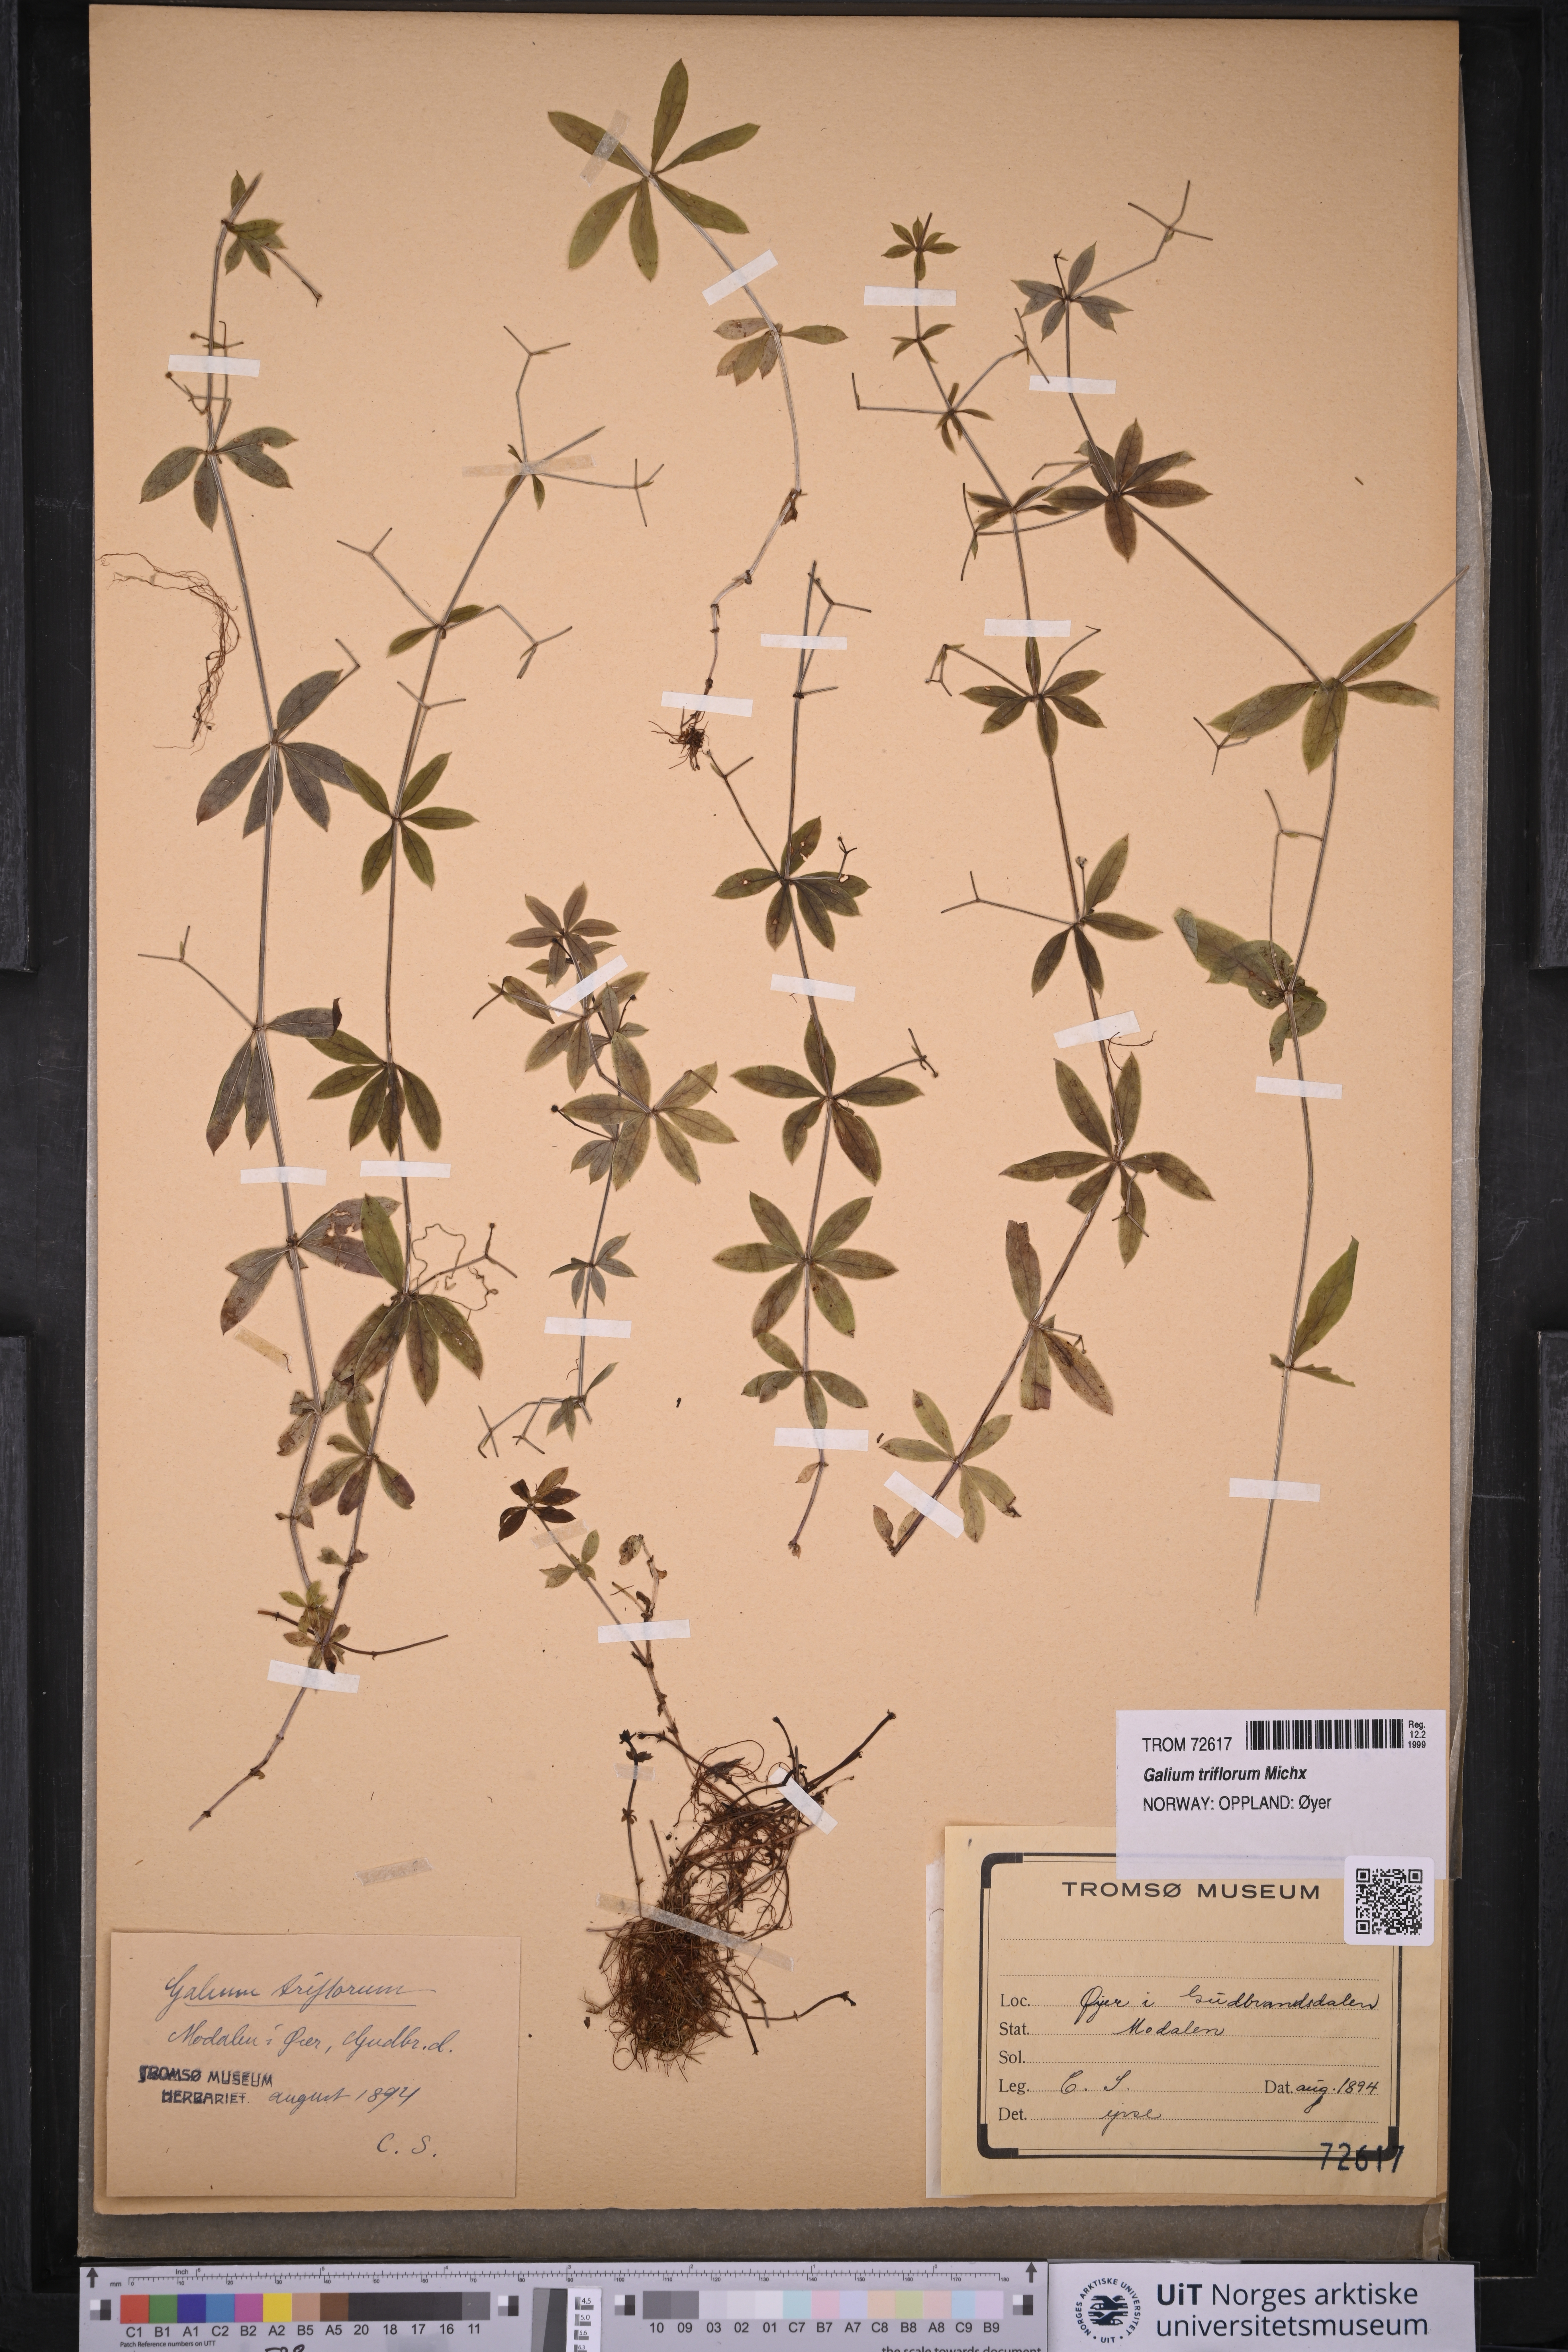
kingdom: Plantae
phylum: Tracheophyta
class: Magnoliopsida
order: Gentianales
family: Rubiaceae
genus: Galium
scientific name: Galium triflorum
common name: Fragrant bedstraw
